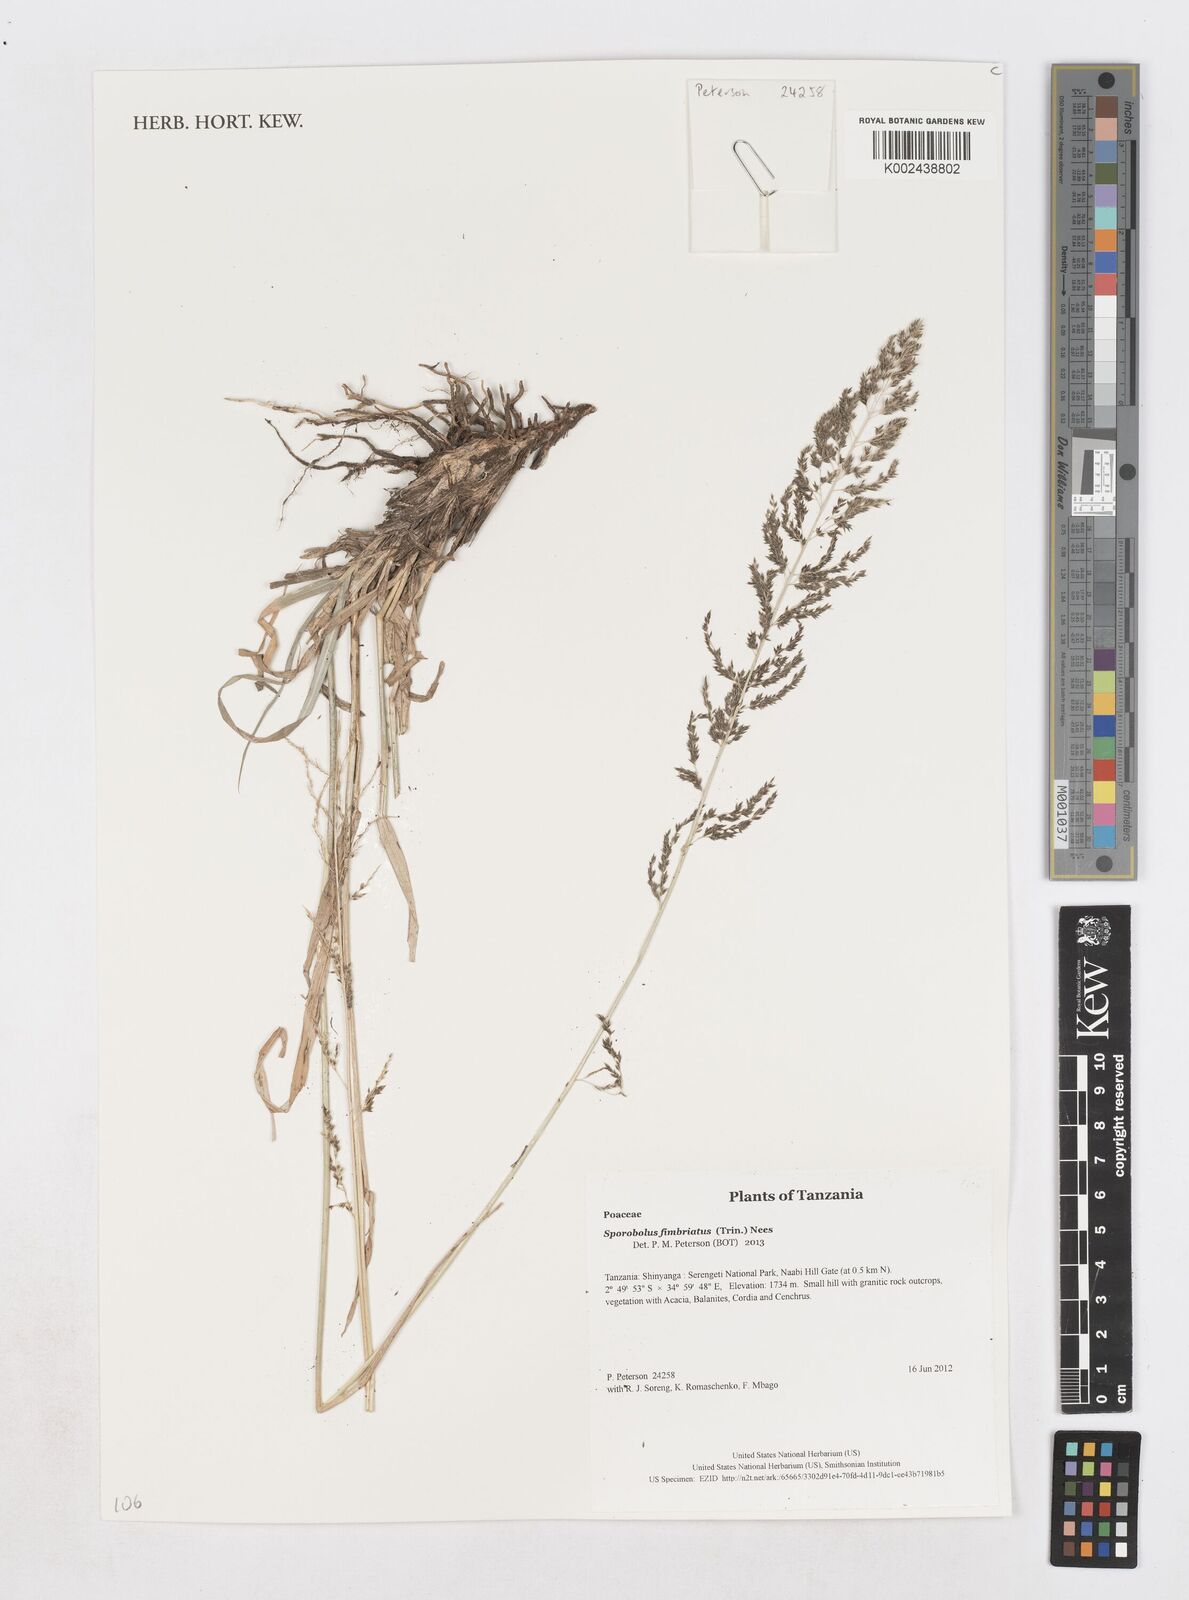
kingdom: Plantae
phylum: Tracheophyta
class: Liliopsida
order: Poales
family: Poaceae
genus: Sporobolus
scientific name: Sporobolus fimbriatus
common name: Fringed dropseed
